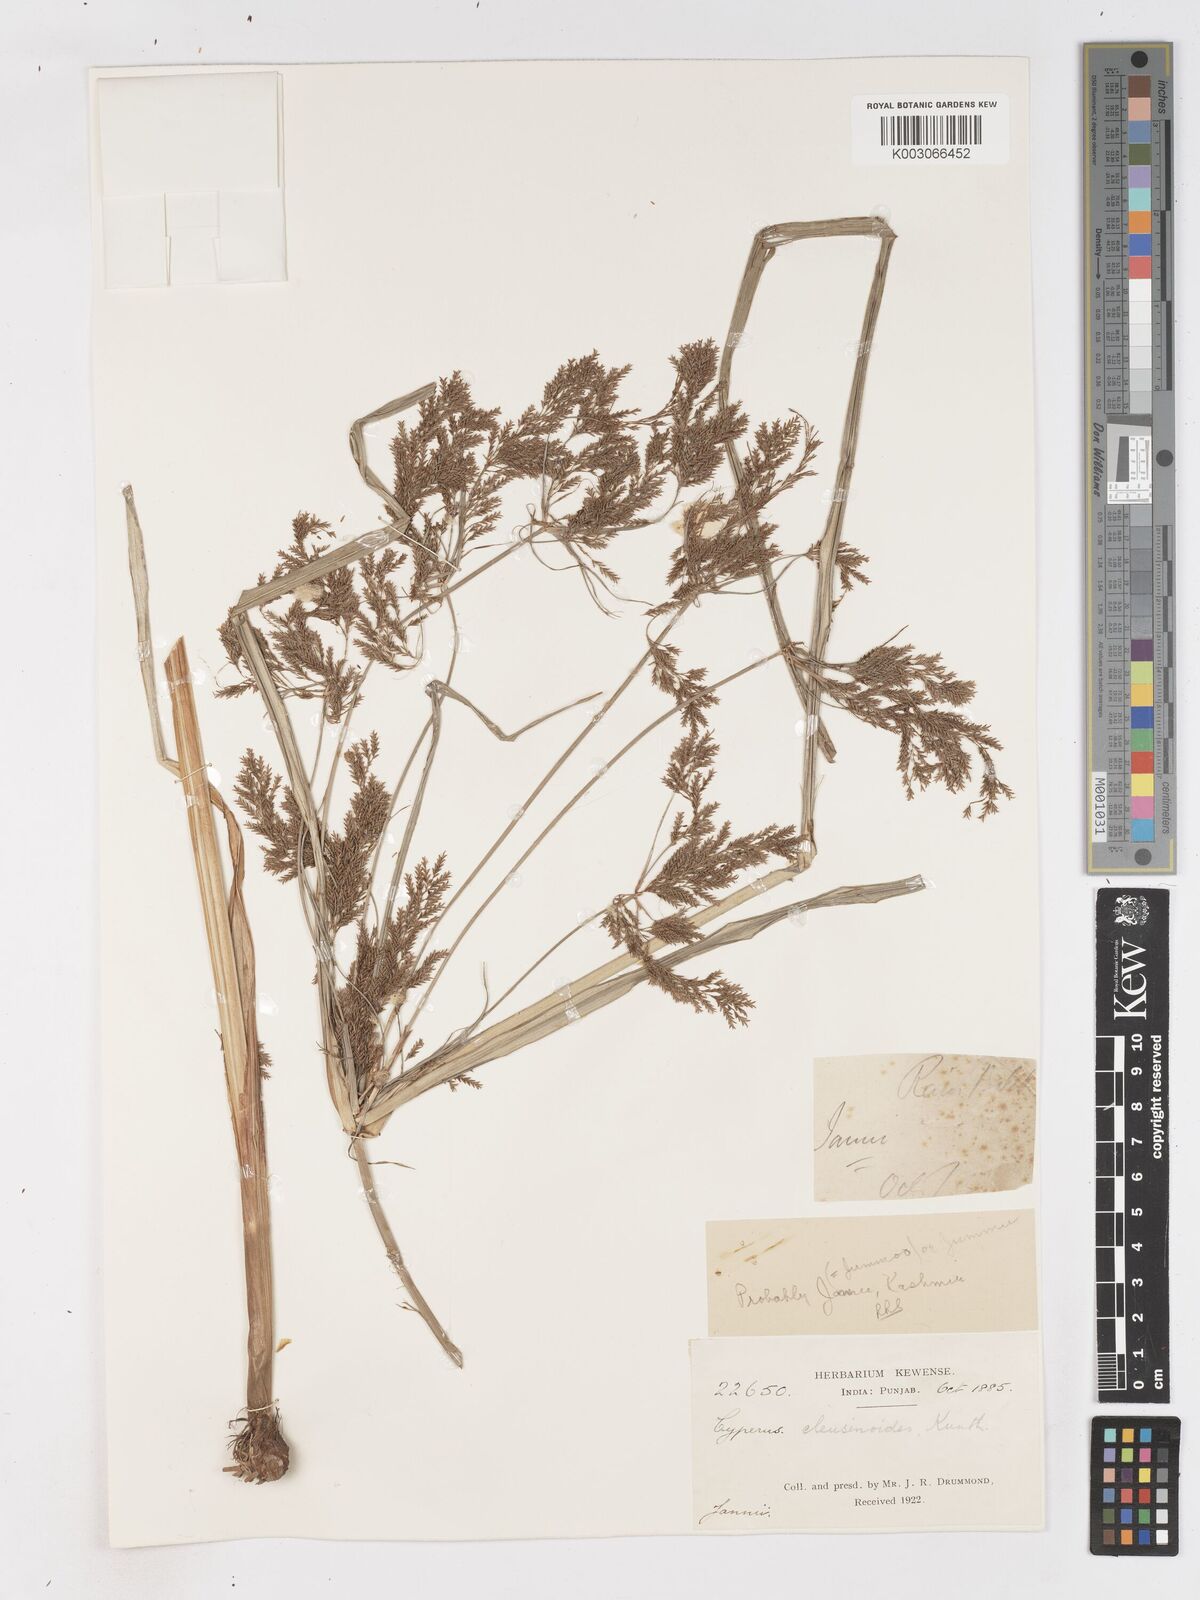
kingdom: Plantae
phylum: Tracheophyta
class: Liliopsida
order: Poales
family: Cyperaceae
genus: Cyperus
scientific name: Cyperus nutans
